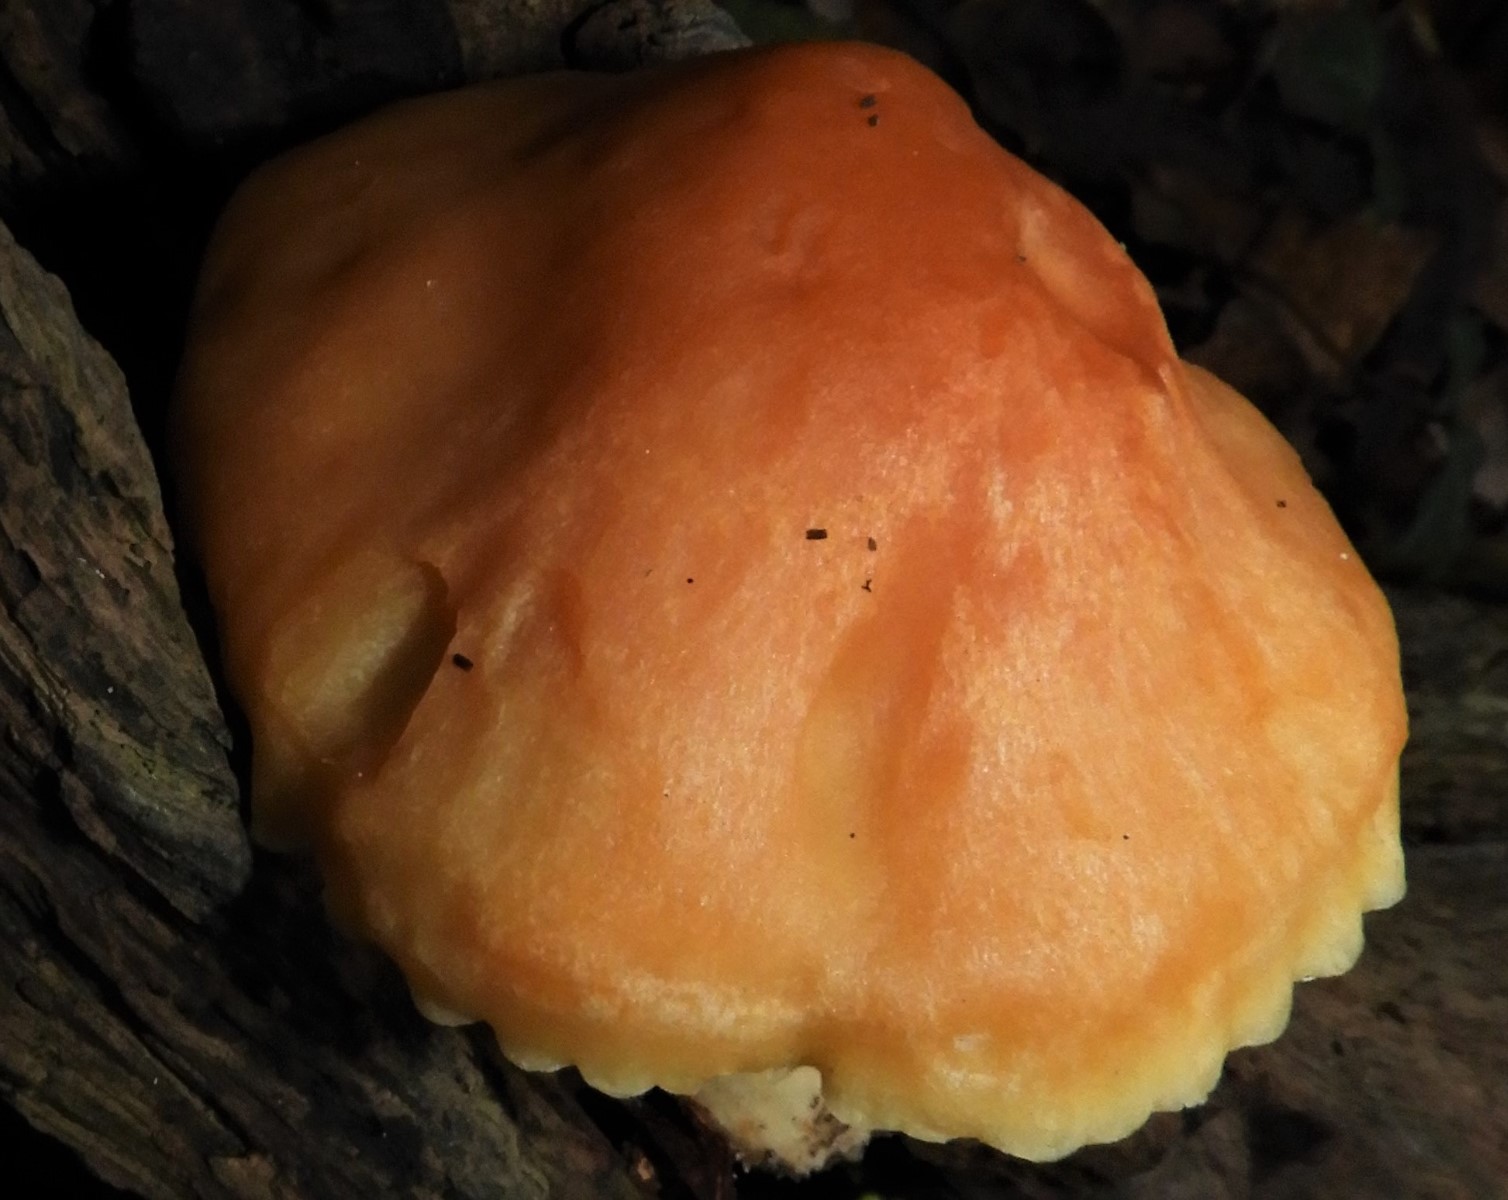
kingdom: Fungi
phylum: Basidiomycota
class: Agaricomycetes
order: Agaricales
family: Hygrophoraceae
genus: Cuphophyllus
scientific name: Cuphophyllus pratensis
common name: eng-vokshat
